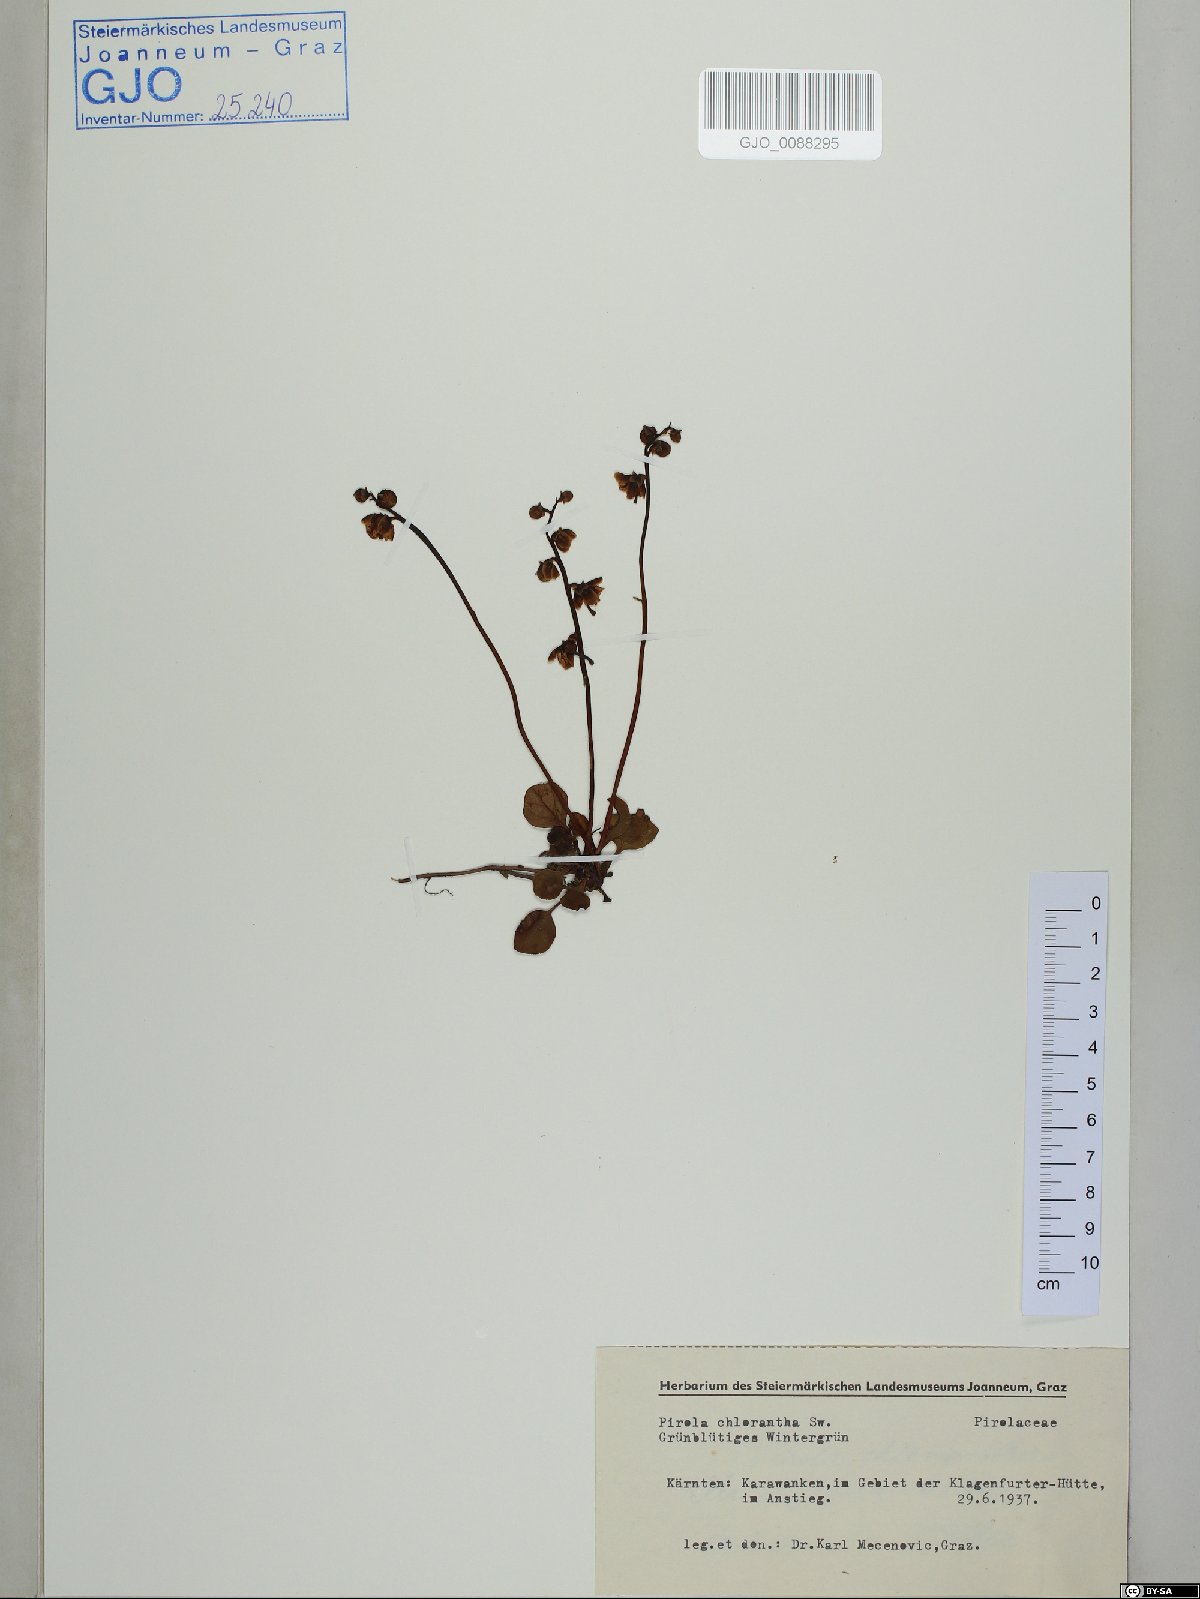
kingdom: Plantae
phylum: Tracheophyta
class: Magnoliopsida
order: Ericales
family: Ericaceae
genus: Pyrola
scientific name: Pyrola chlorantha
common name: Green wintergreen
